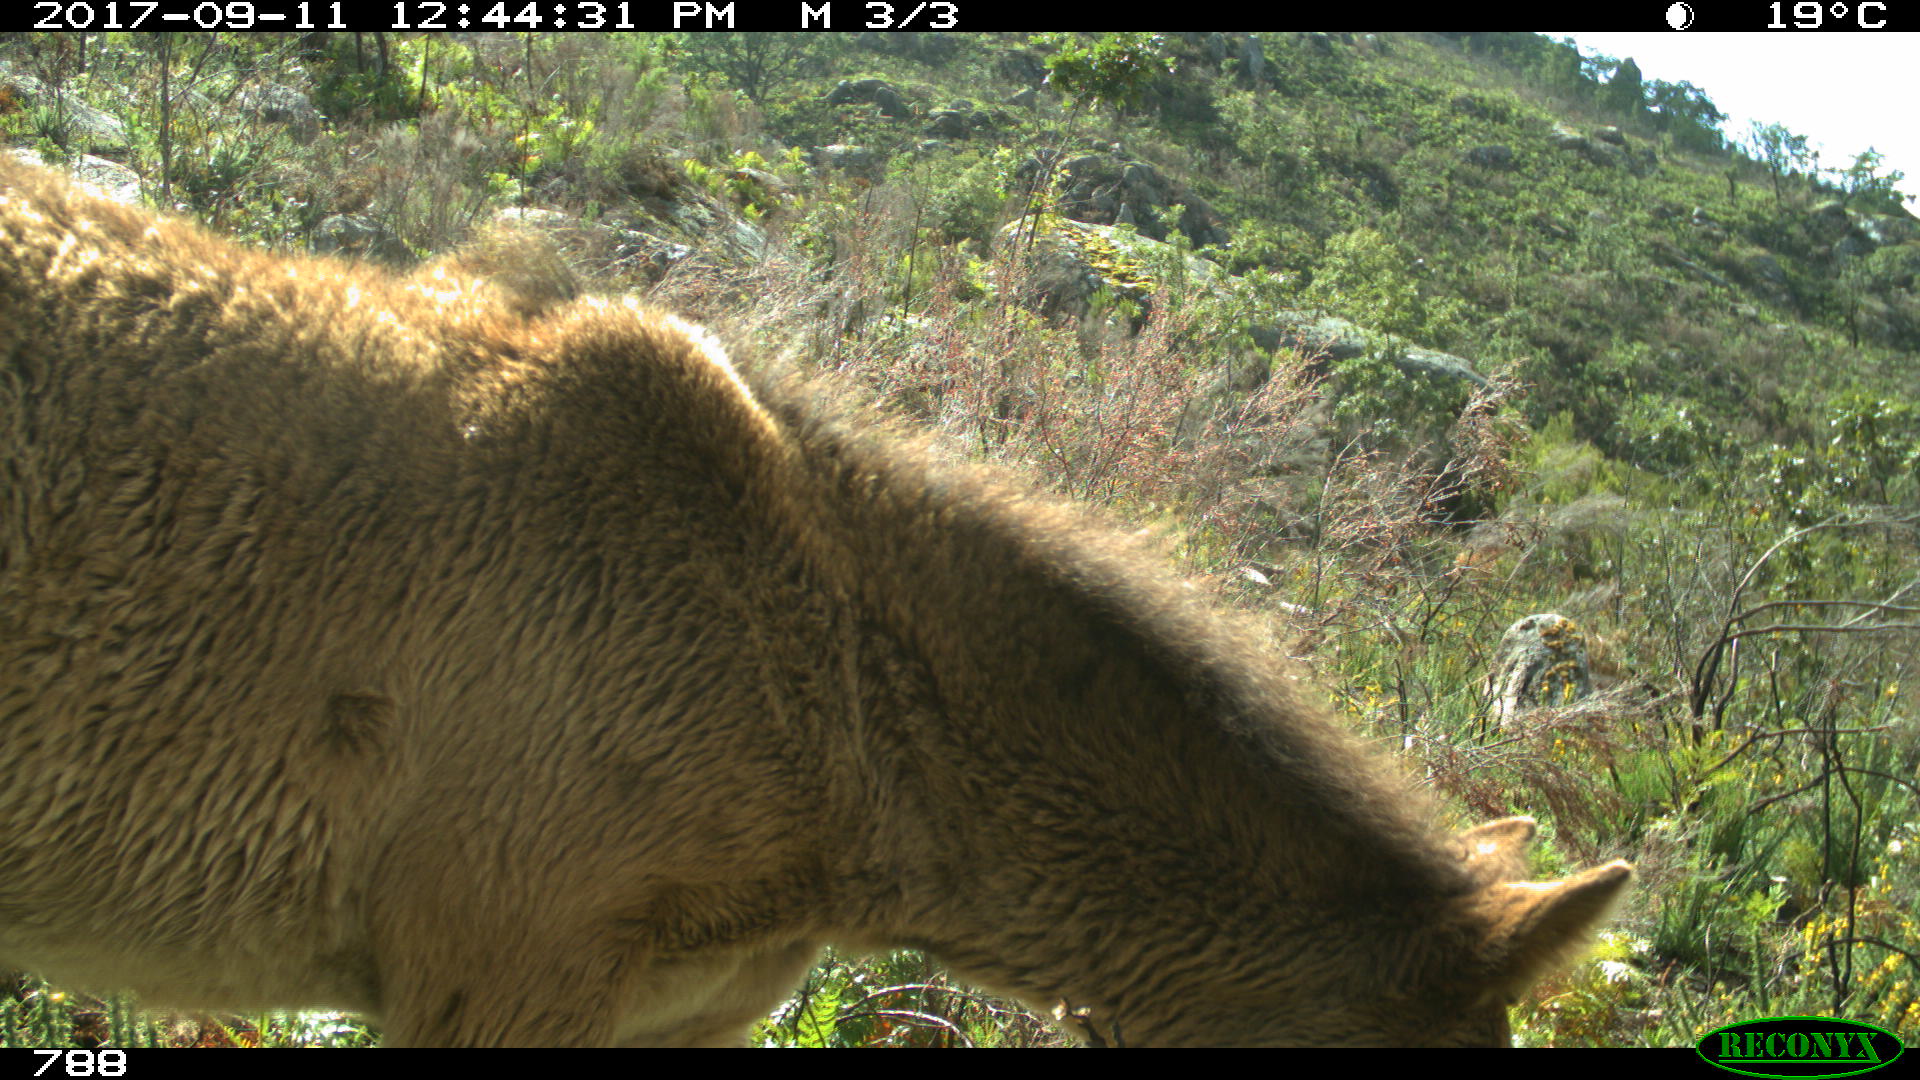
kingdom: Animalia
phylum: Chordata
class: Mammalia
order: Perissodactyla
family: Equidae
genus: Equus
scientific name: Equus caballus
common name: Horse
